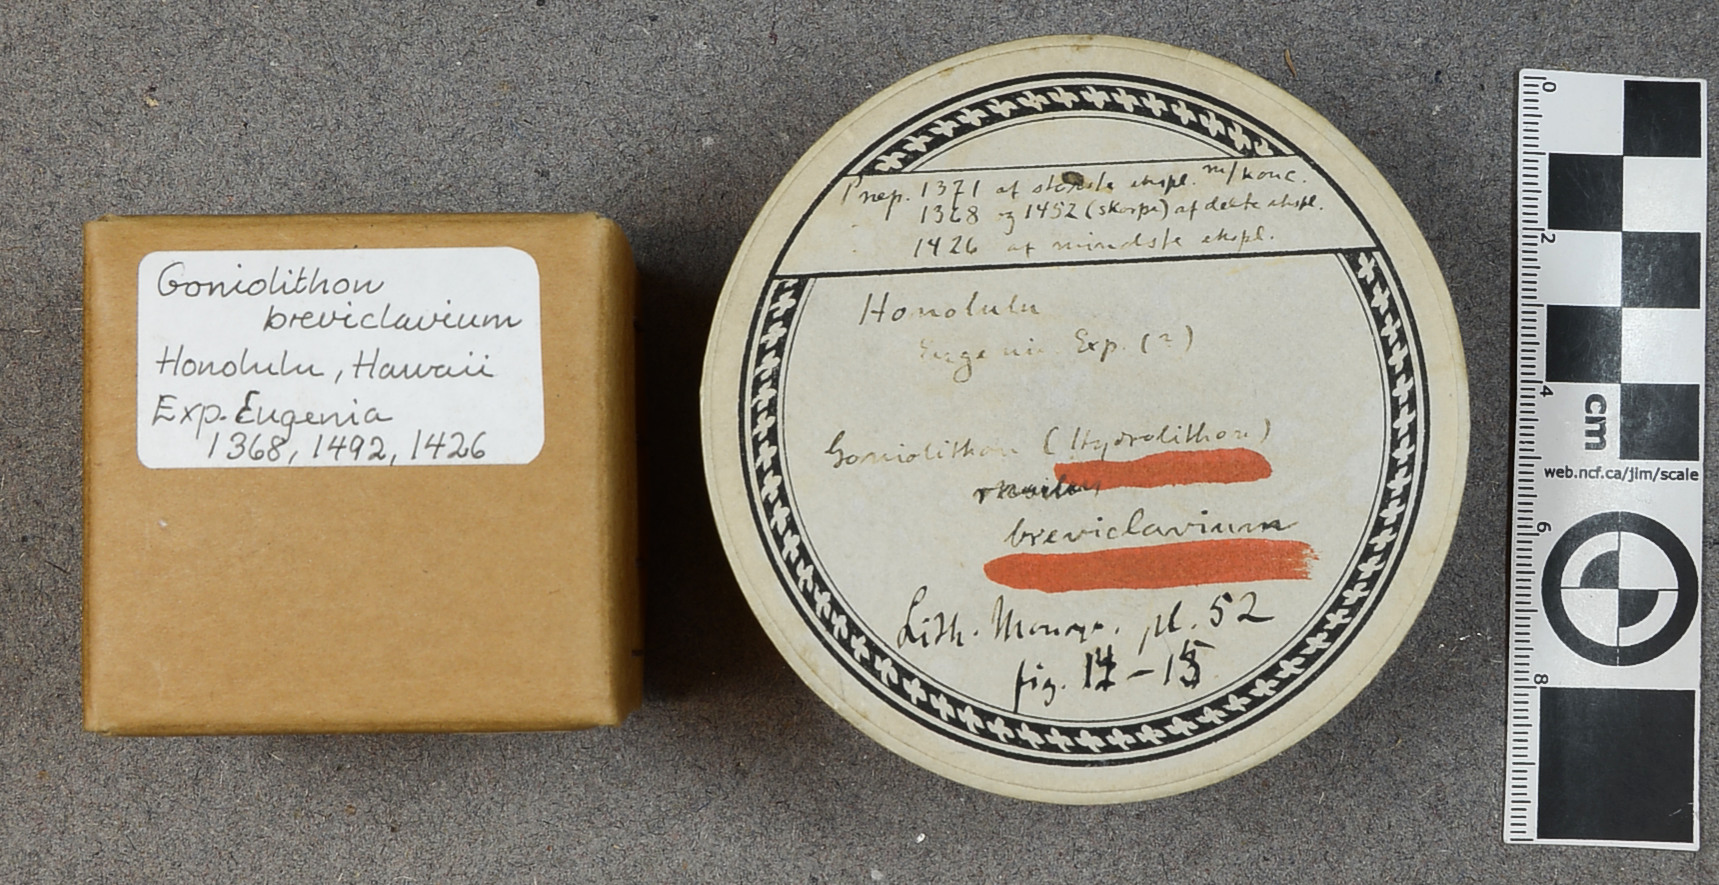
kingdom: Plantae
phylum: Rhodophyta
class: Florideophyceae
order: Corallinales
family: Hydrolithaceae
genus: Hydrolithon
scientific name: Hydrolithon breviclavium
